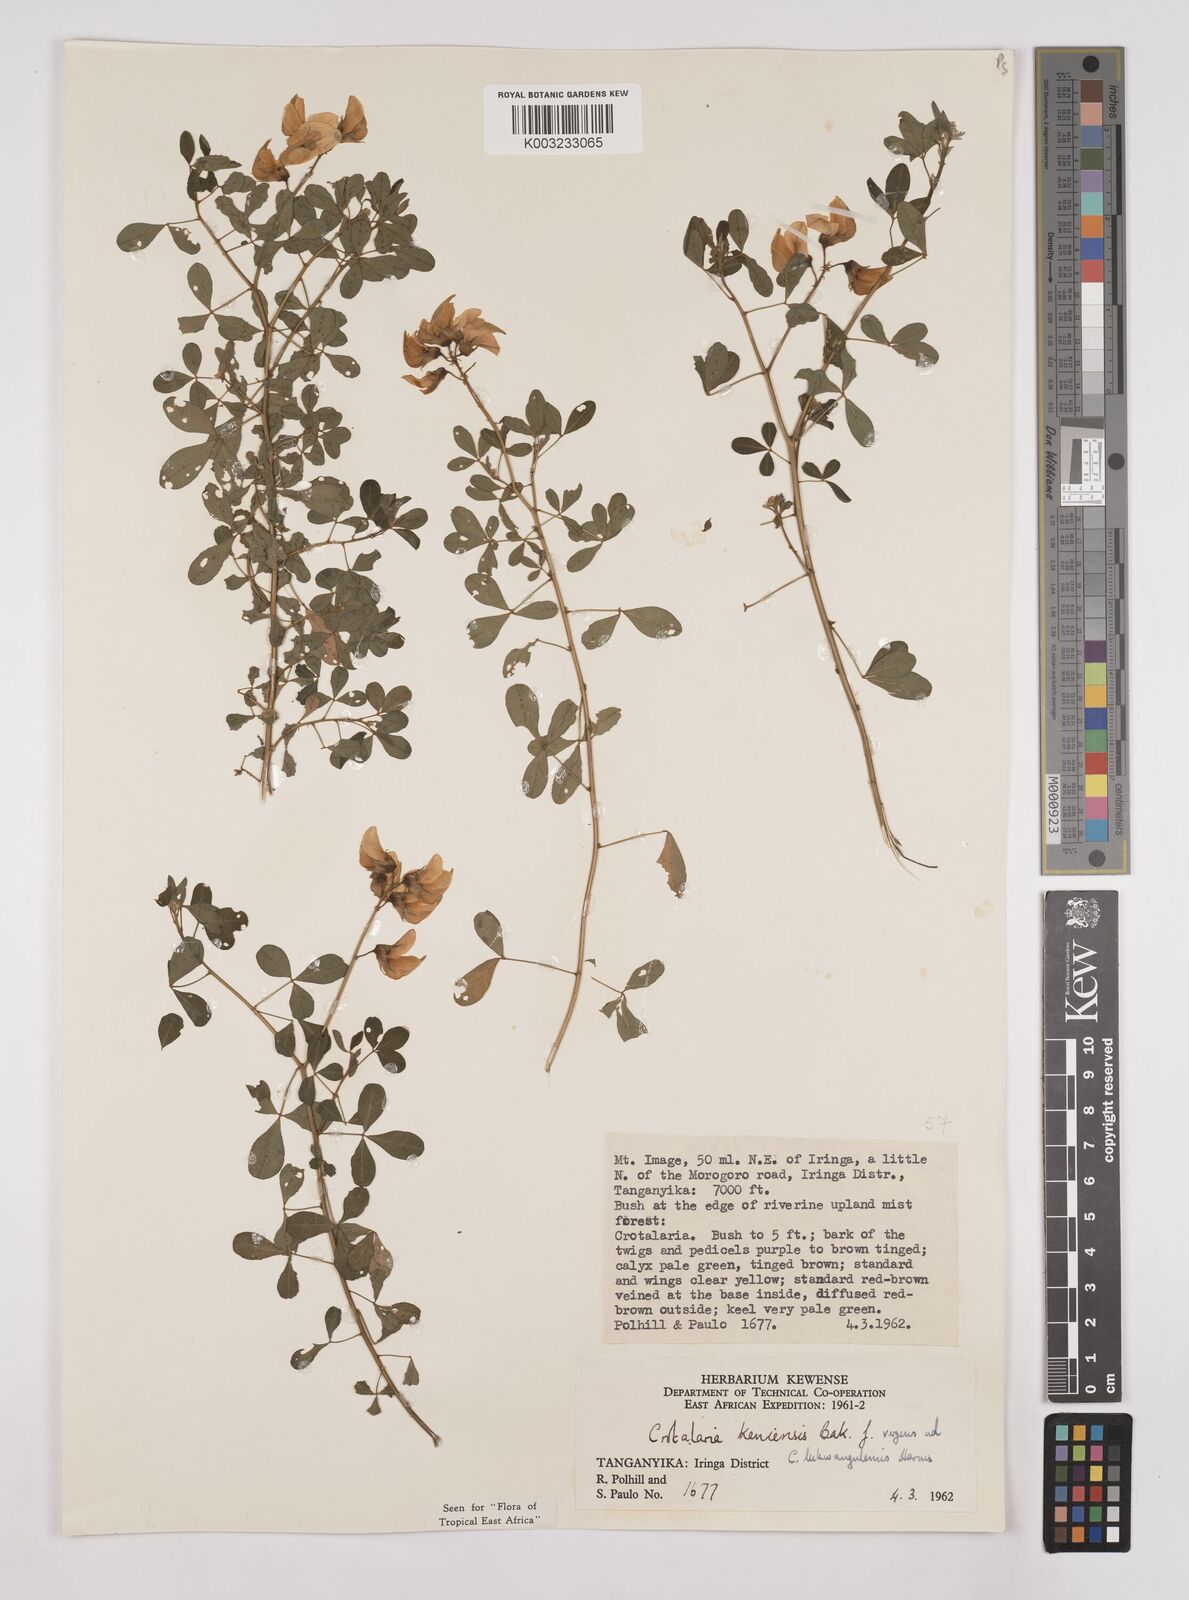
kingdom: Plantae
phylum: Tracheophyta
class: Magnoliopsida
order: Fabales
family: Fabaceae
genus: Crotalaria
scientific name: Crotalaria keniensis
